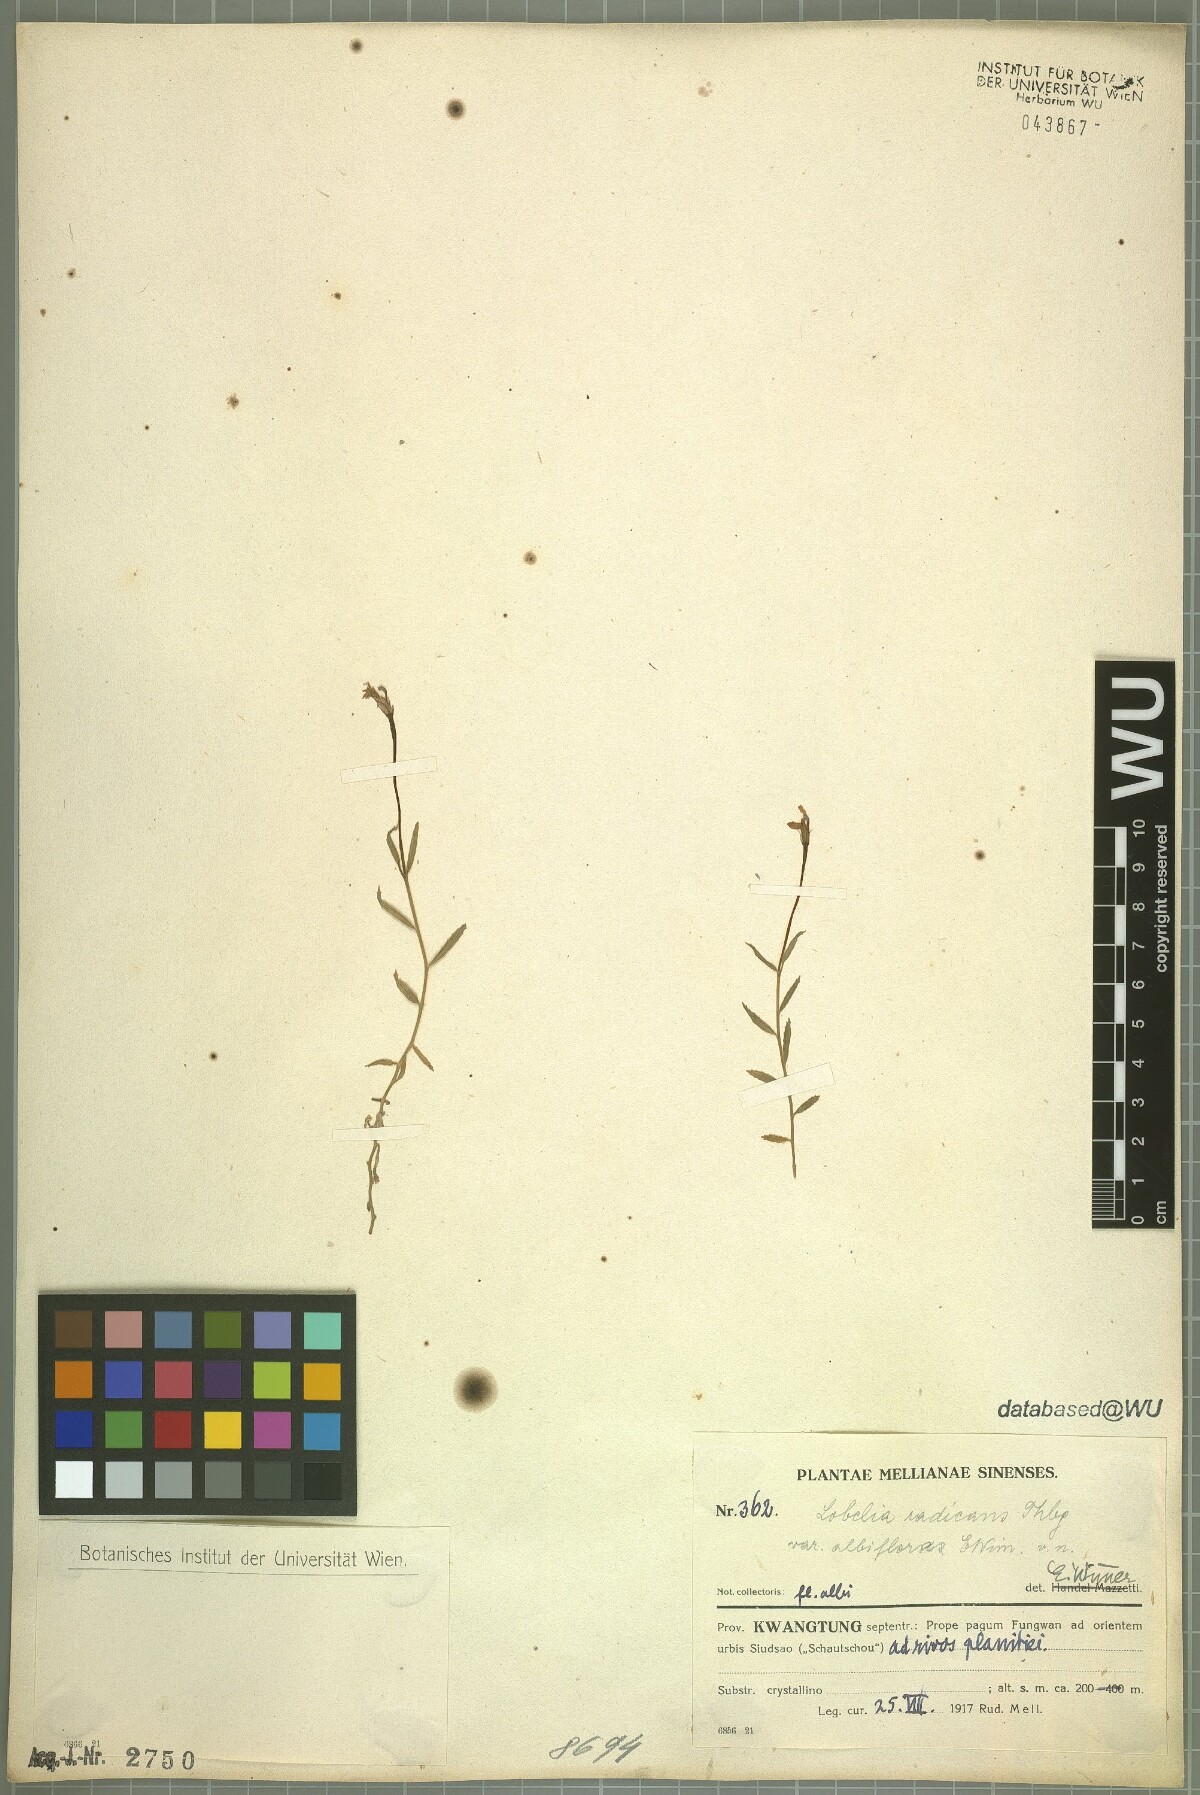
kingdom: Plantae
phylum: Tracheophyta
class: Magnoliopsida
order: Asterales
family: Campanulaceae
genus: Lobelia
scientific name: Lobelia chinensis
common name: Chinese lobelia
